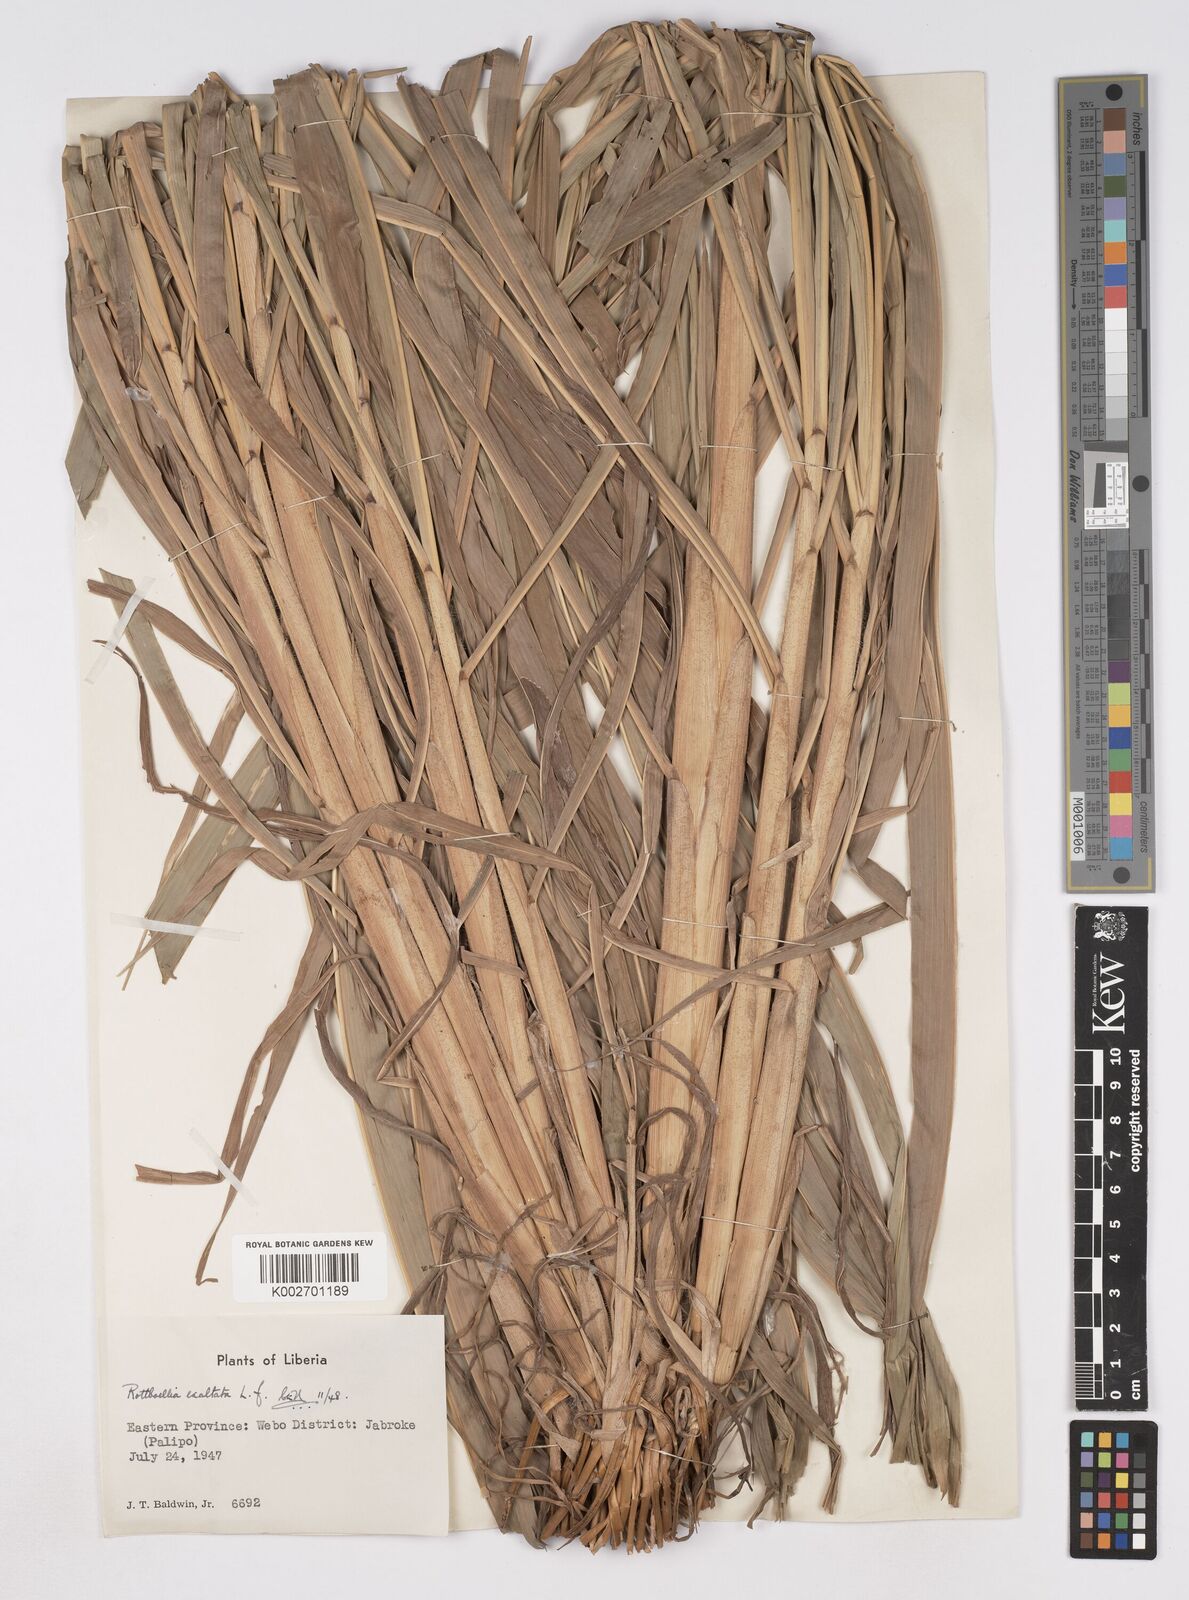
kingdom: Plantae
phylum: Tracheophyta
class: Liliopsida
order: Poales
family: Poaceae
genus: Ophiuros
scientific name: Ophiuros exaltatus
